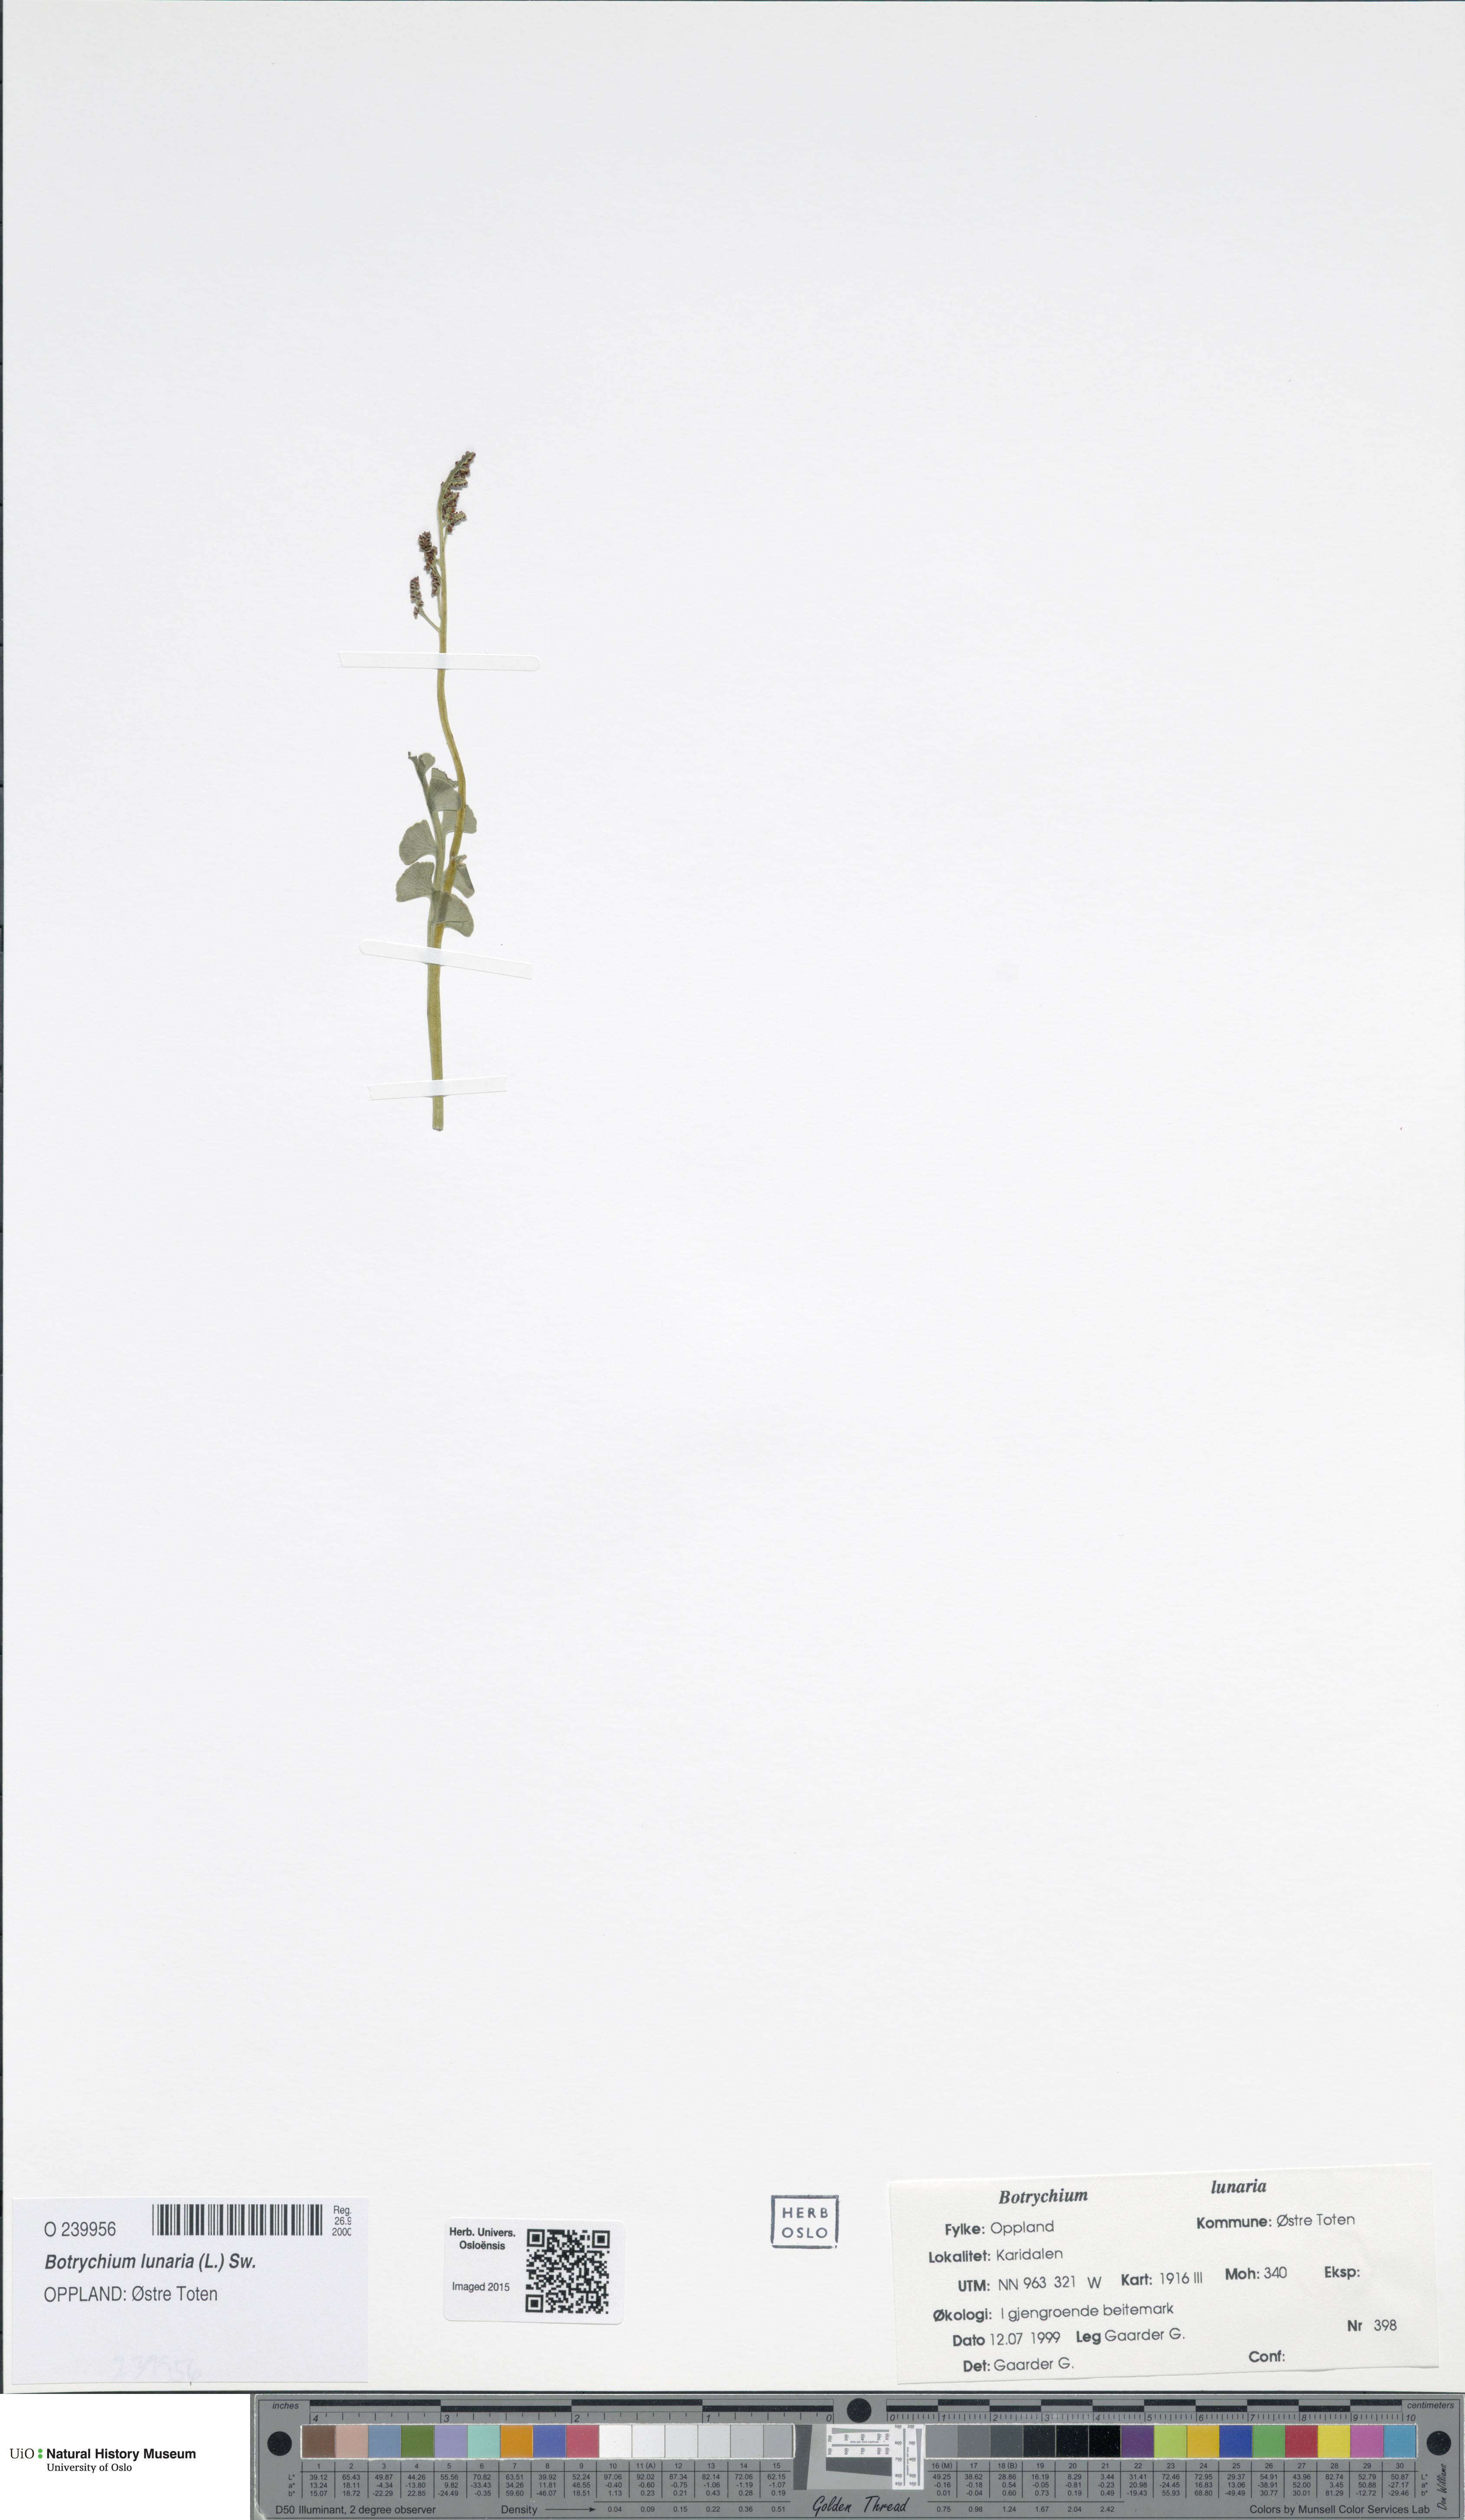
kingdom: Plantae
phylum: Tracheophyta
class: Polypodiopsida
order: Ophioglossales
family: Ophioglossaceae
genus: Botrychium
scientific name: Botrychium lunaria
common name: Moonwort
